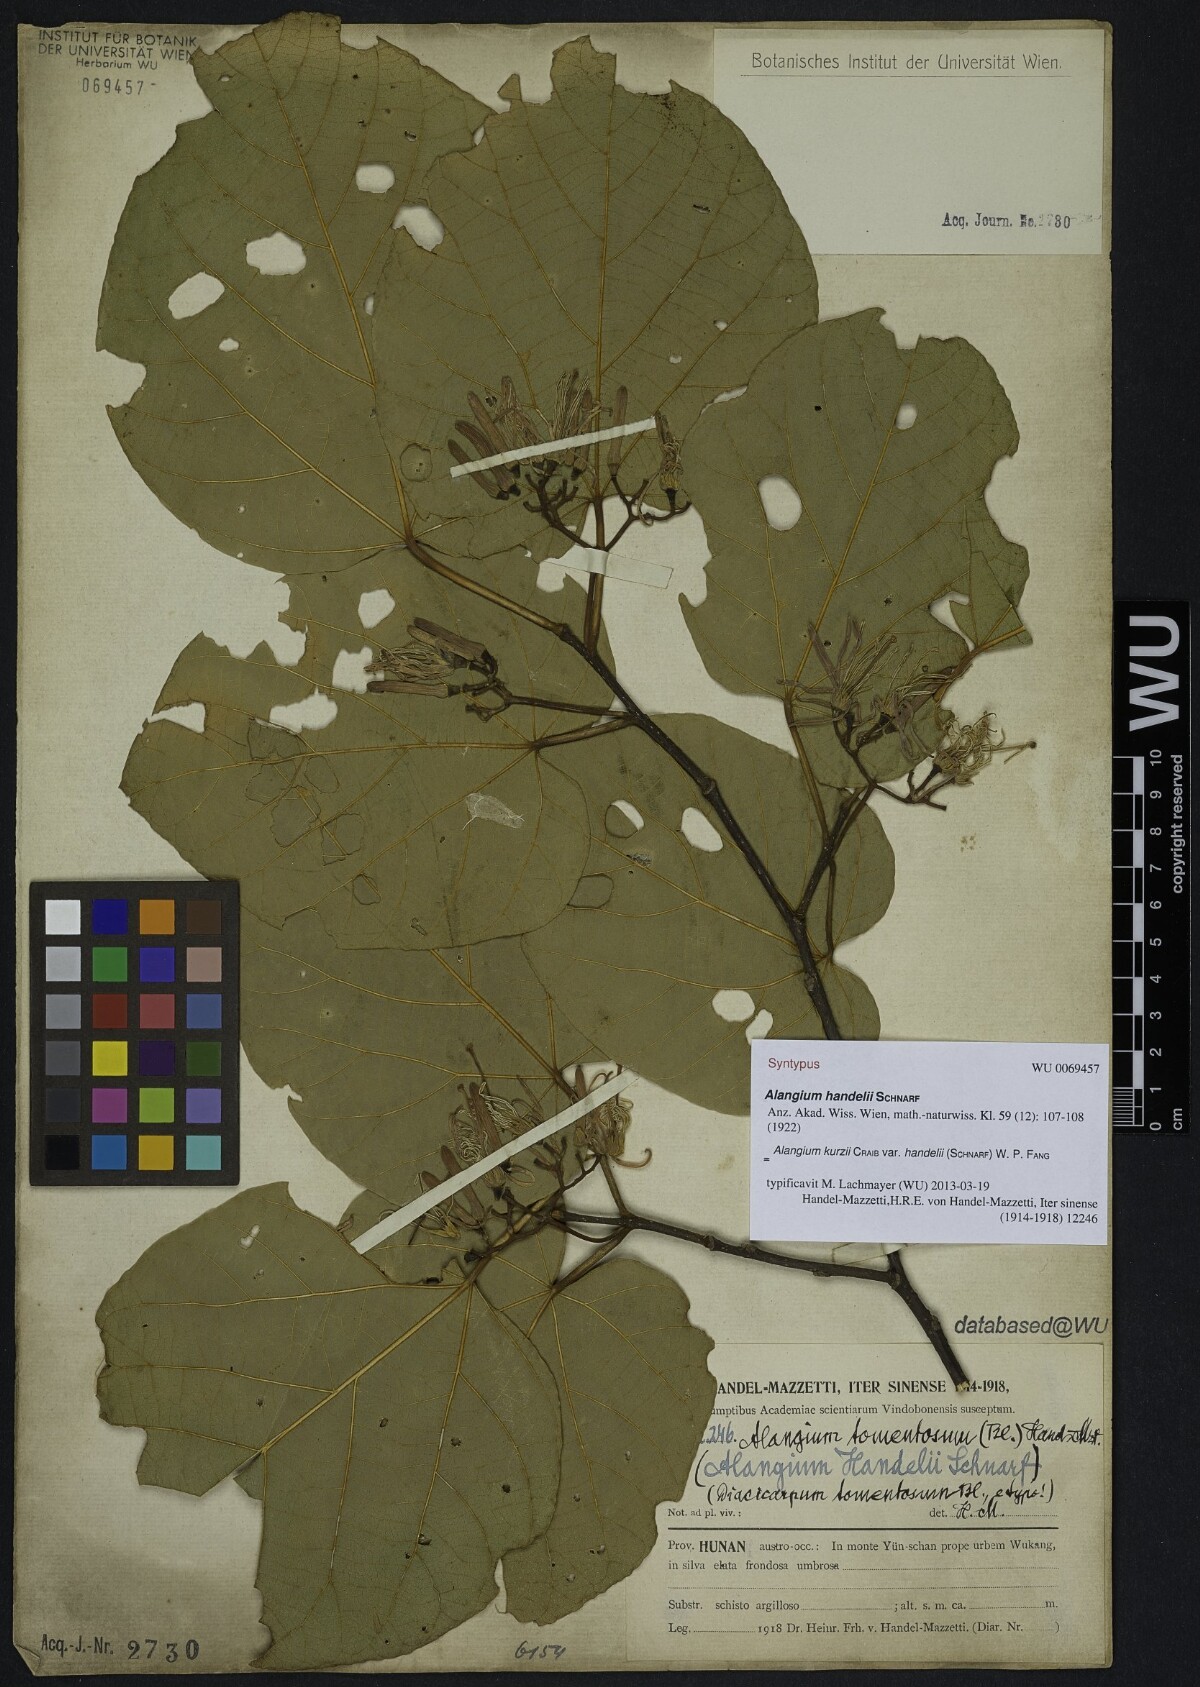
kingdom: Plantae
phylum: Tracheophyta
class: Magnoliopsida
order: Cornales
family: Cornaceae
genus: Alangium
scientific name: Alangium kurzii
